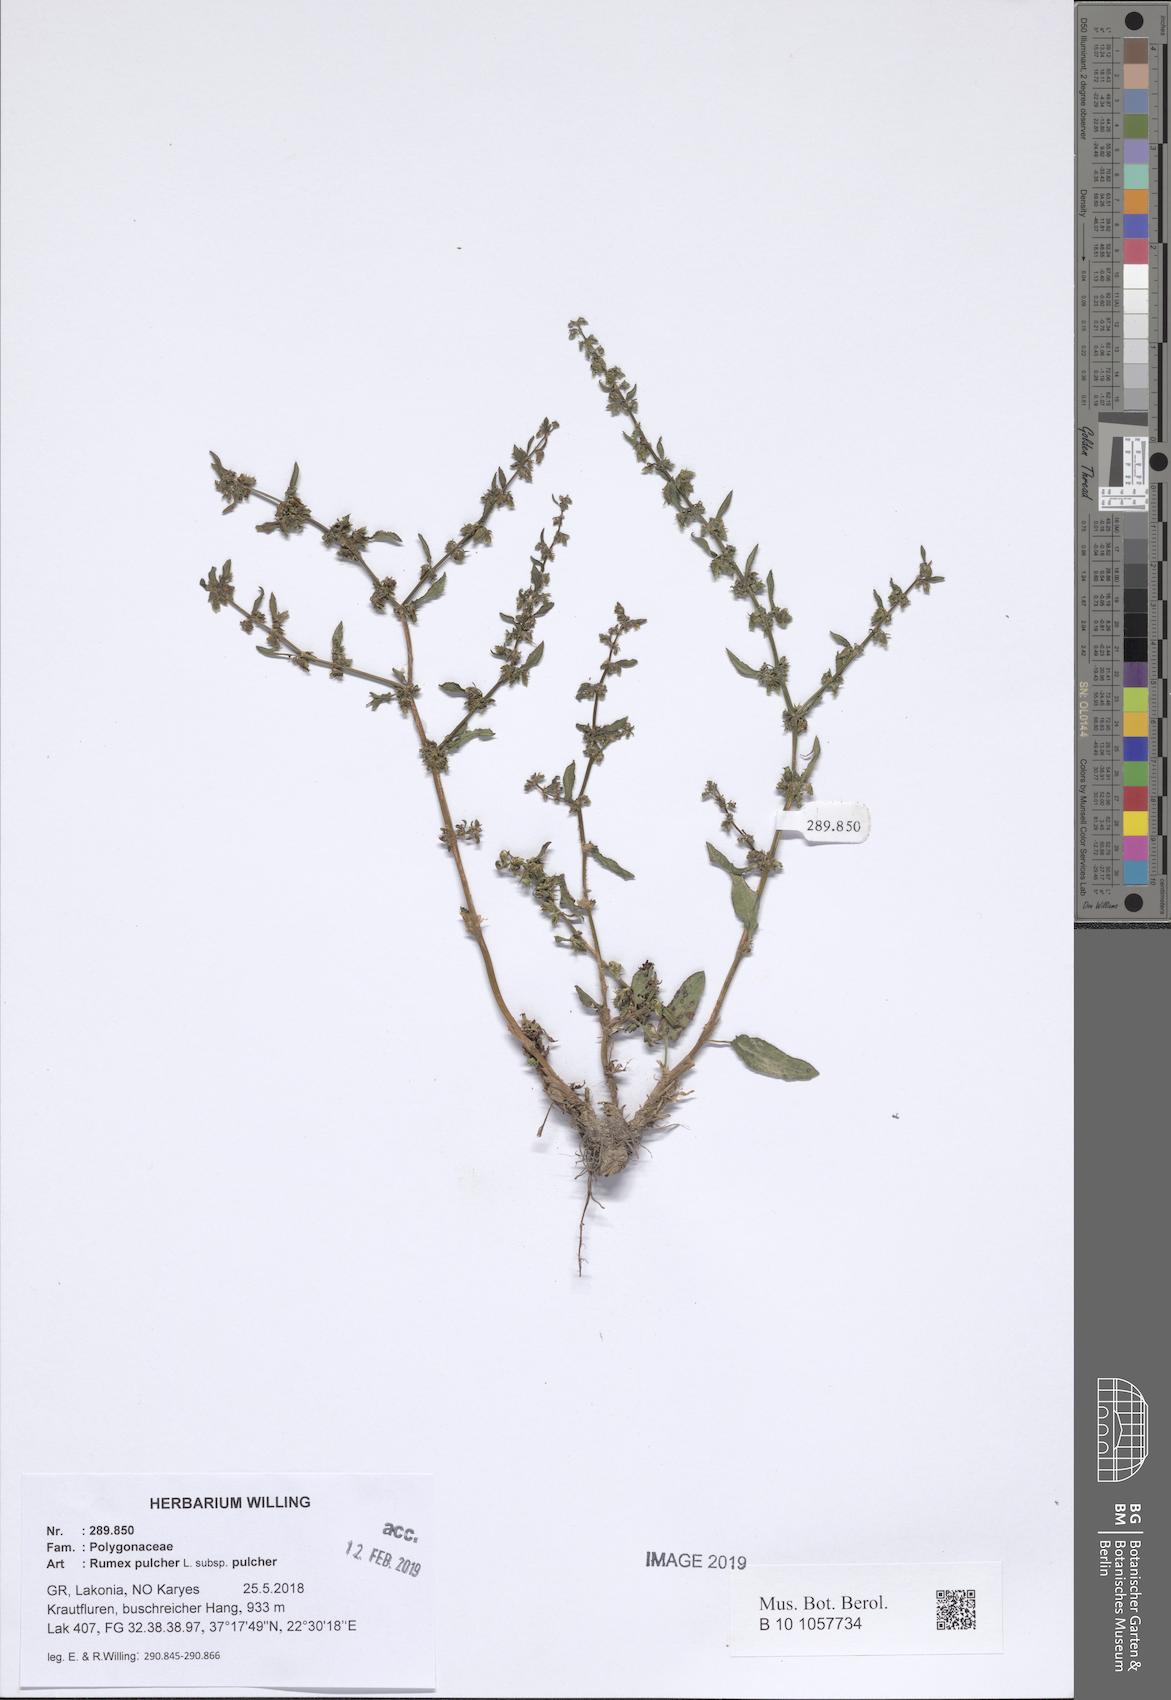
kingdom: Plantae
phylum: Tracheophyta
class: Magnoliopsida
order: Caryophyllales
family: Polygonaceae
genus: Rumex
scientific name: Rumex pulcher
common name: Fiddle dock
